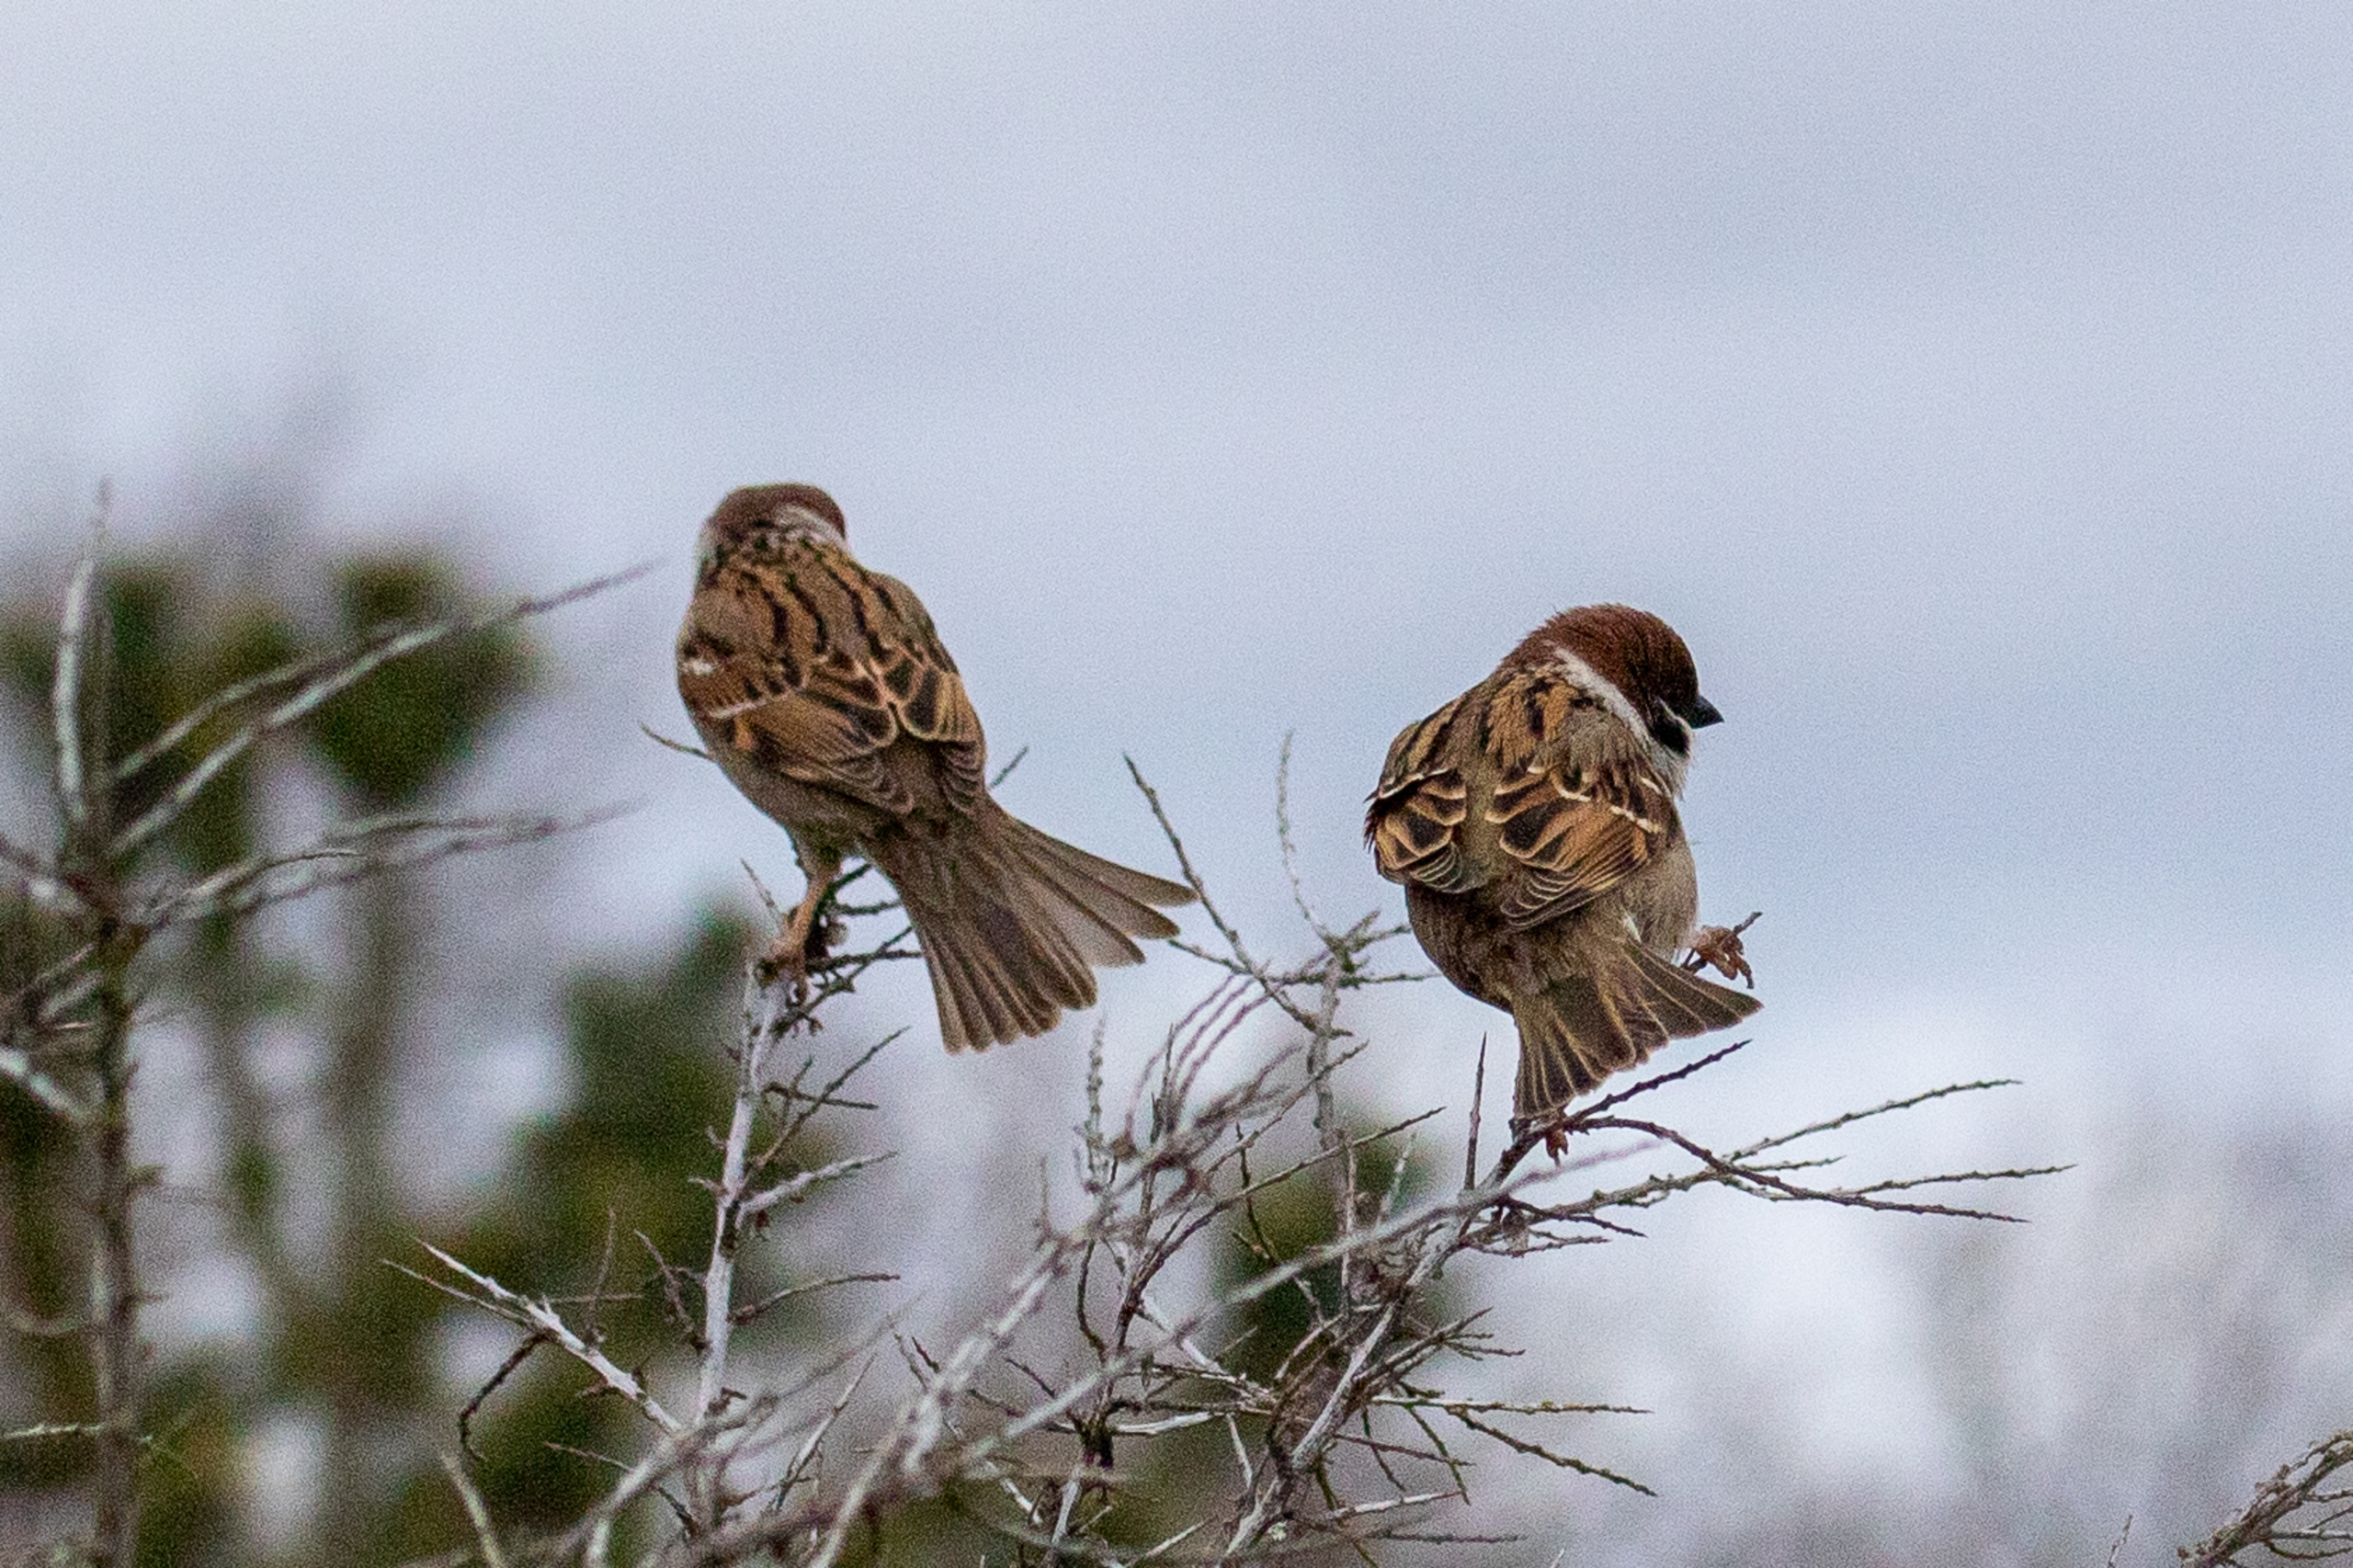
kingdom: Animalia
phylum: Chordata
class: Aves
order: Passeriformes
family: Passeridae
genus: Passer
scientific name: Passer montanus
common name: Skovspurv
